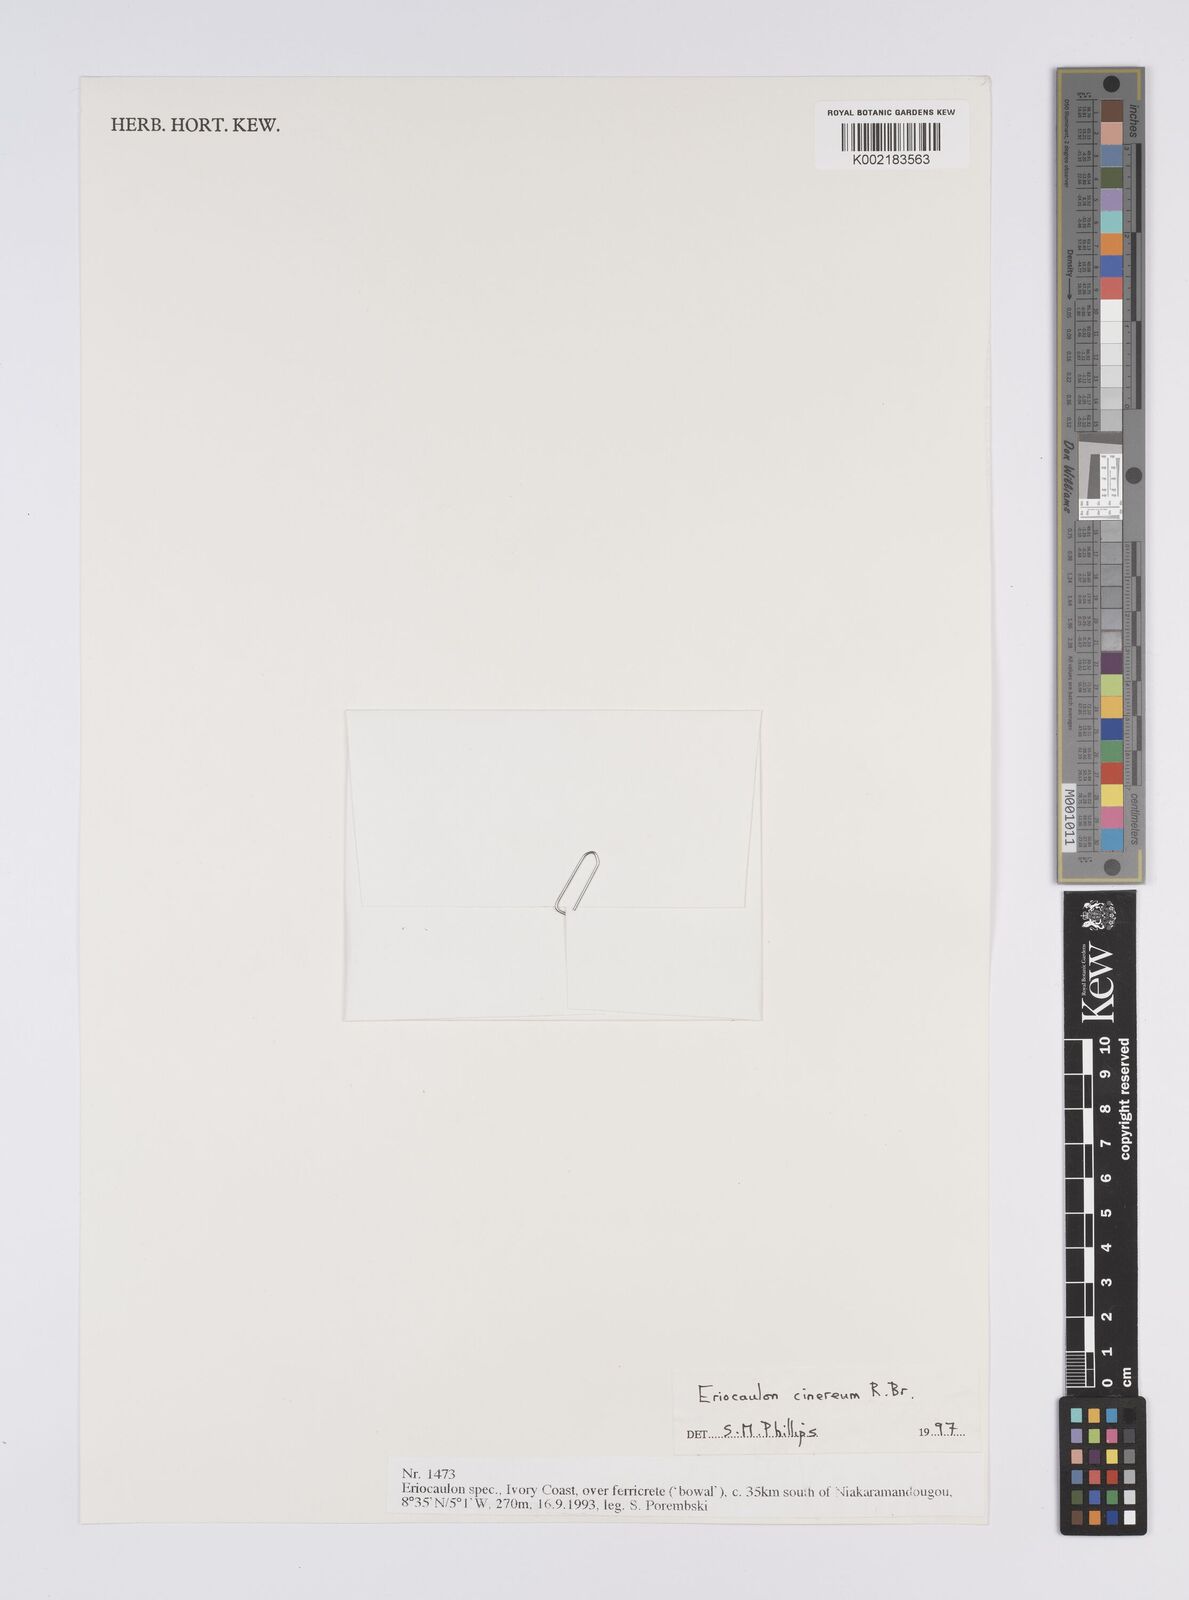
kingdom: Plantae
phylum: Tracheophyta
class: Liliopsida
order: Poales
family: Eriocaulaceae
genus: Eriocaulon
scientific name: Eriocaulon cinereum
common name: Ashy pipewort
